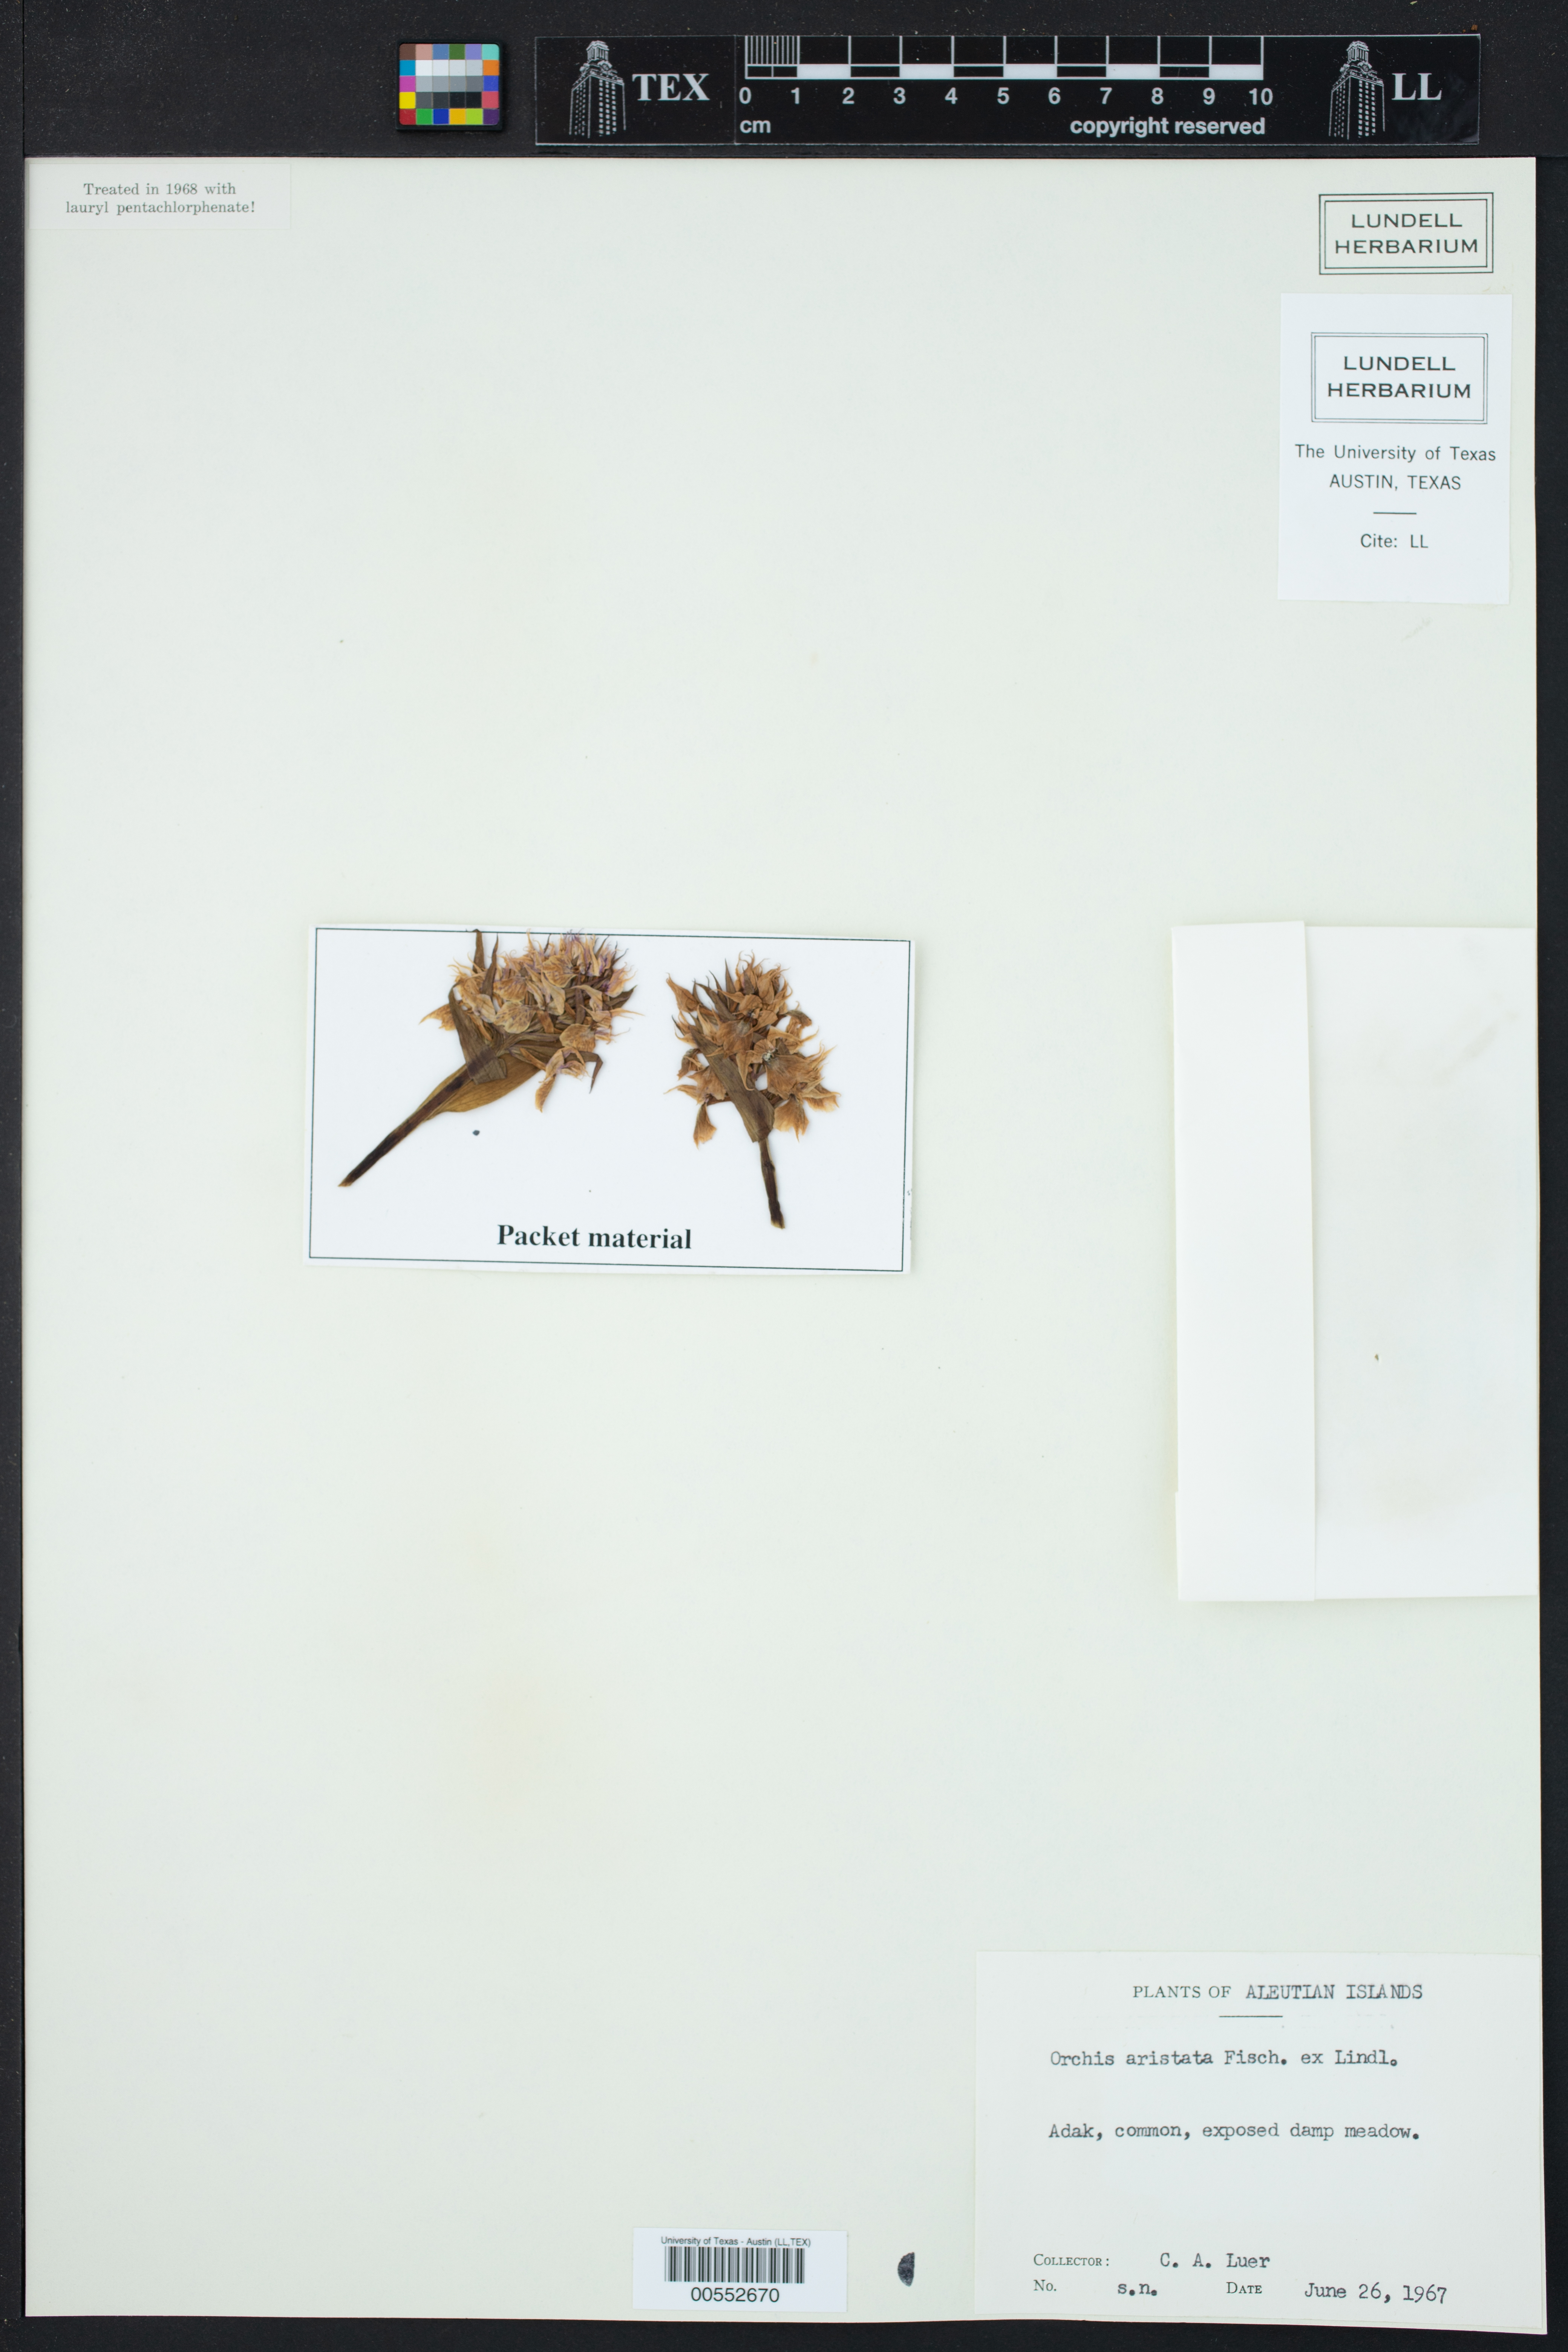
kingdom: Plantae
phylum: Tracheophyta
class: Liliopsida
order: Asparagales
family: Orchidaceae
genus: Dactylorhiza
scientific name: Dactylorhiza aristata
